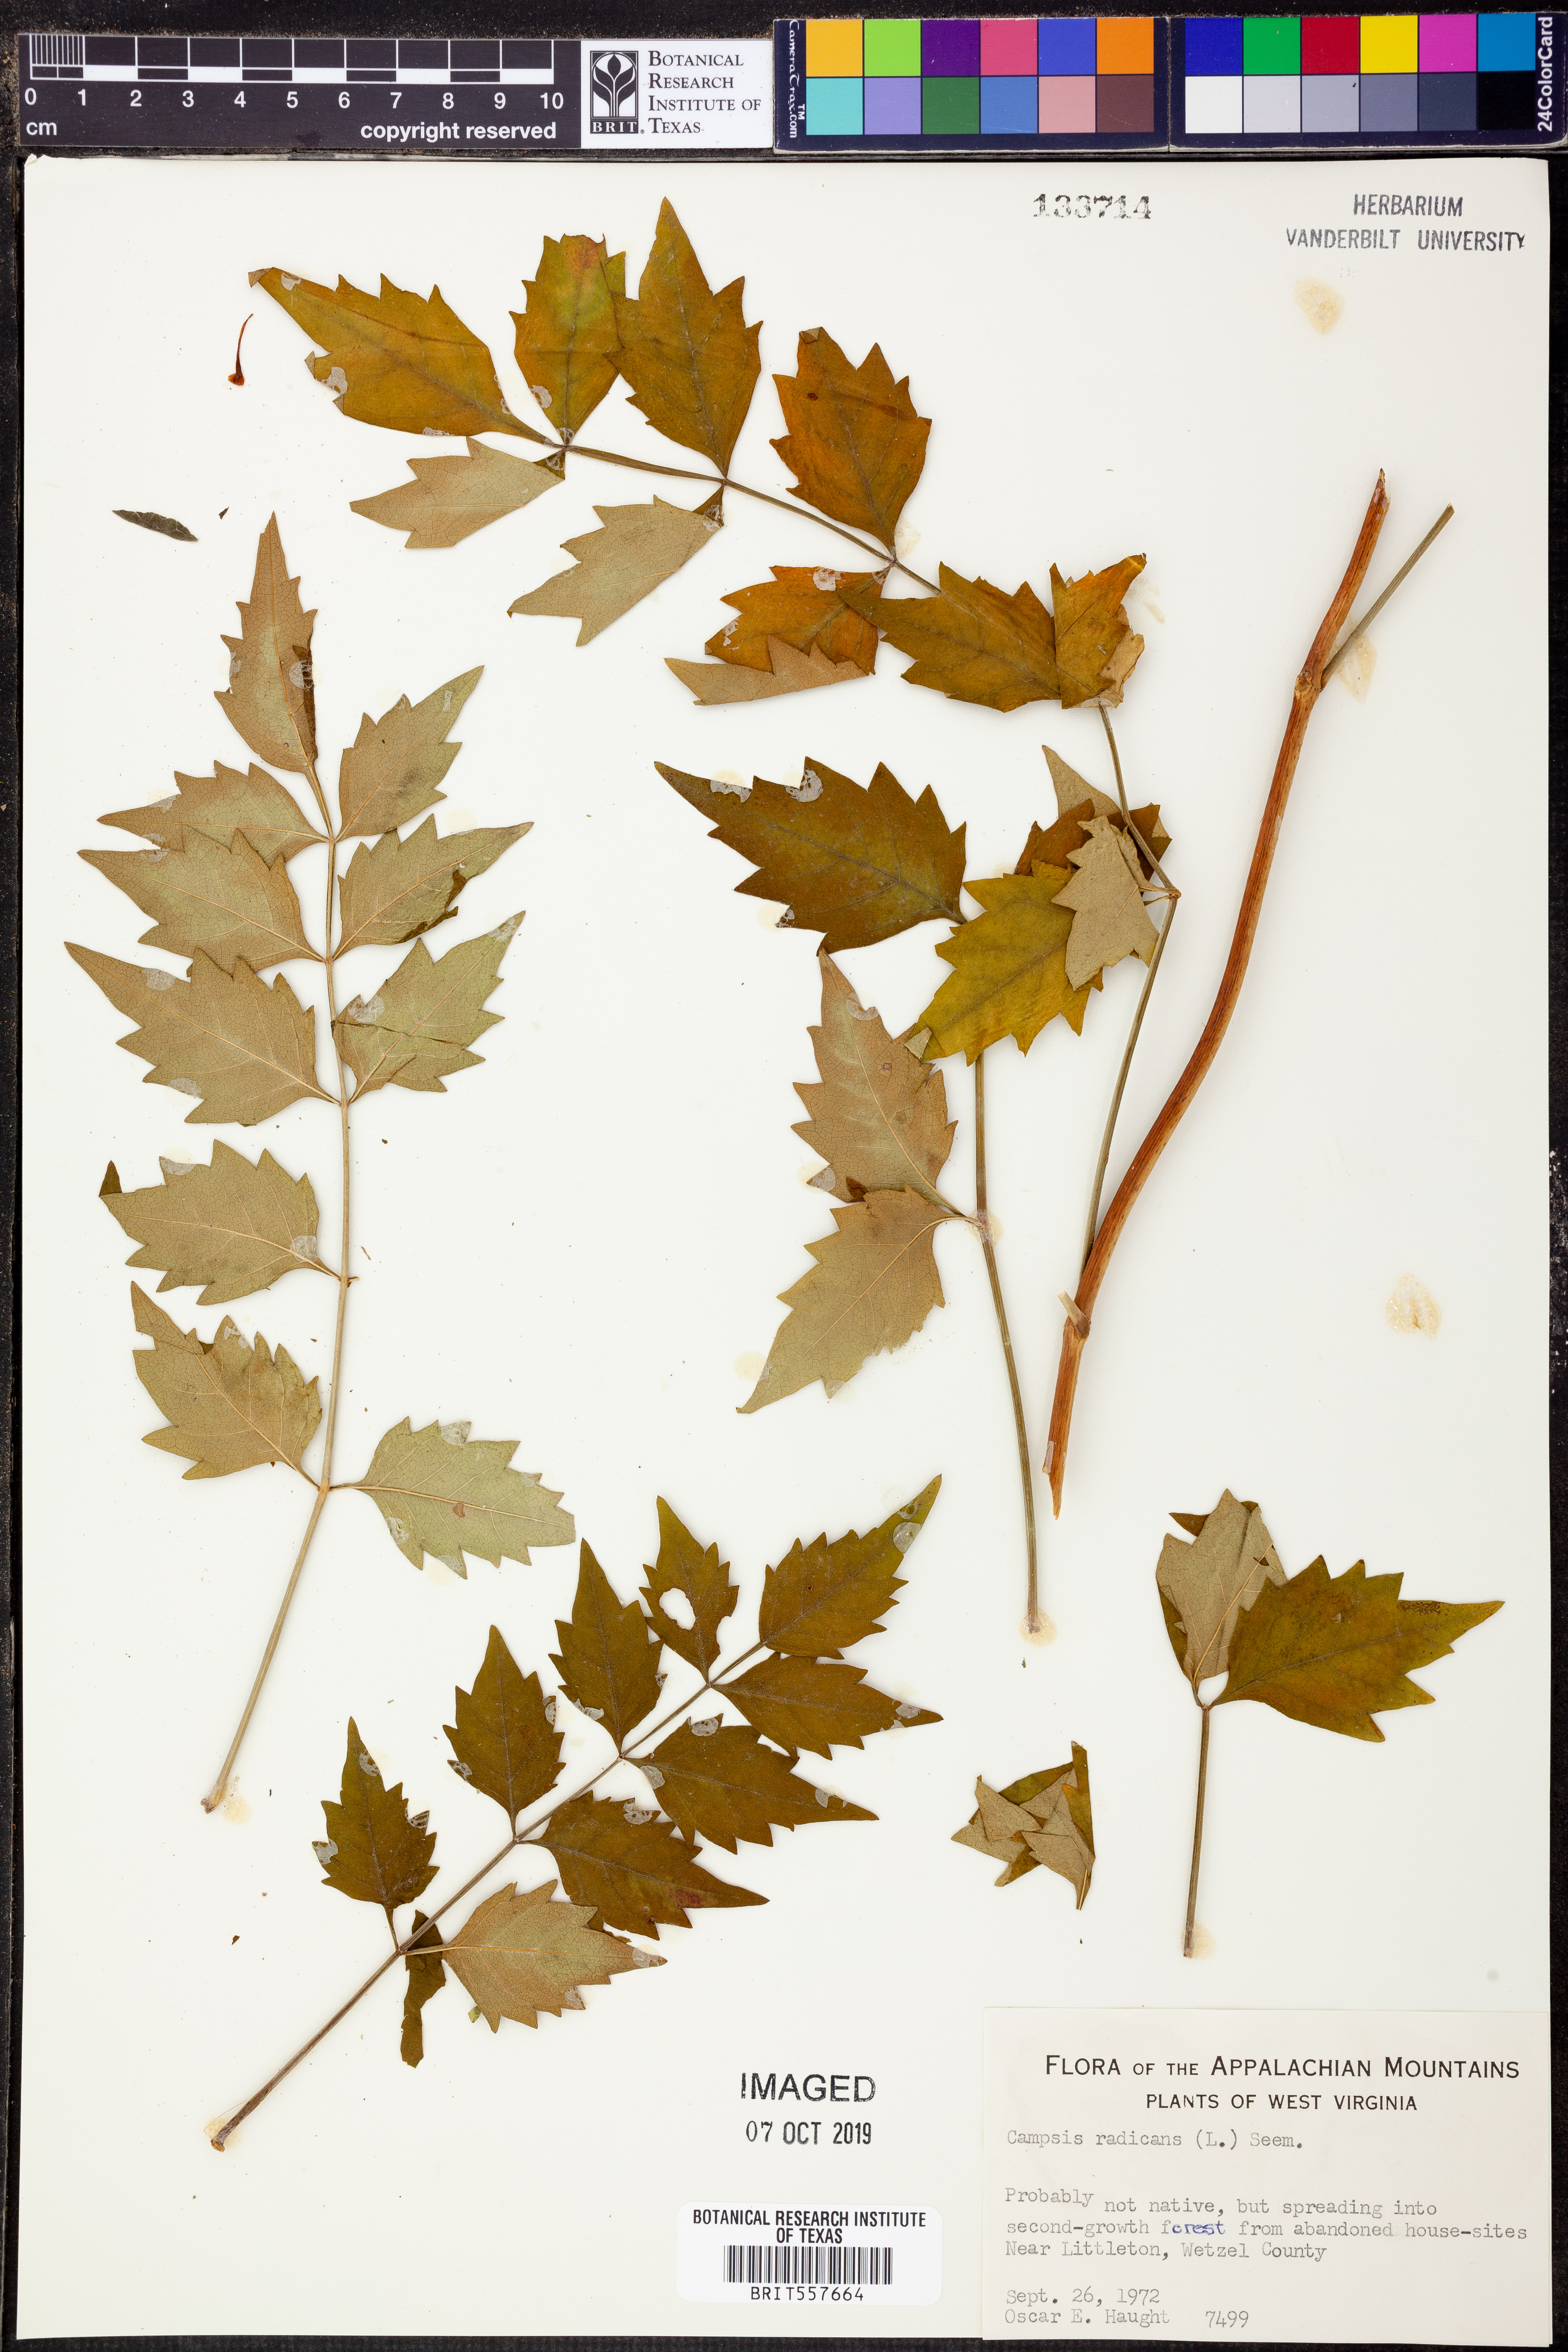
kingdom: Plantae
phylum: Tracheophyta
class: Magnoliopsida
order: Lamiales
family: Bignoniaceae
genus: Campsis
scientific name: Campsis radicans
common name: Trumpet-creeper
